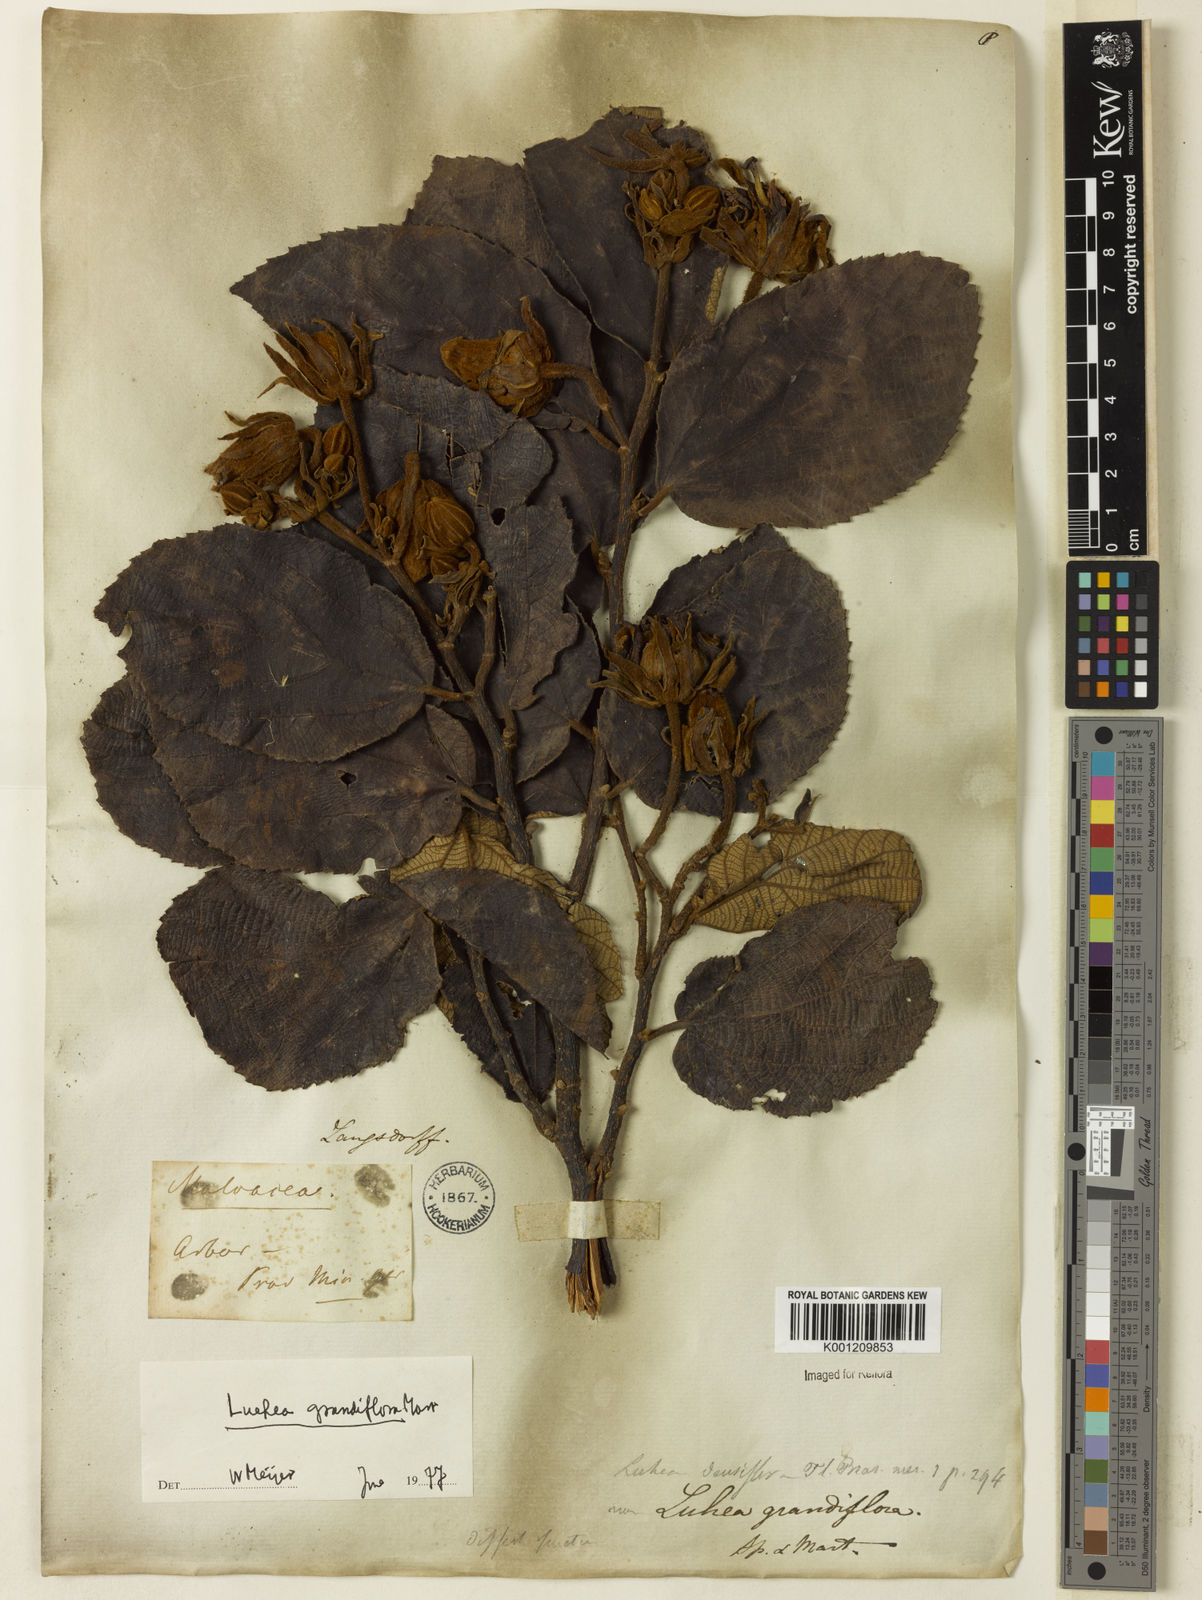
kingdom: Plantae
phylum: Tracheophyta
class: Magnoliopsida
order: Malvales
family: Malvaceae
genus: Luehea
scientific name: Luehea grandiflora
